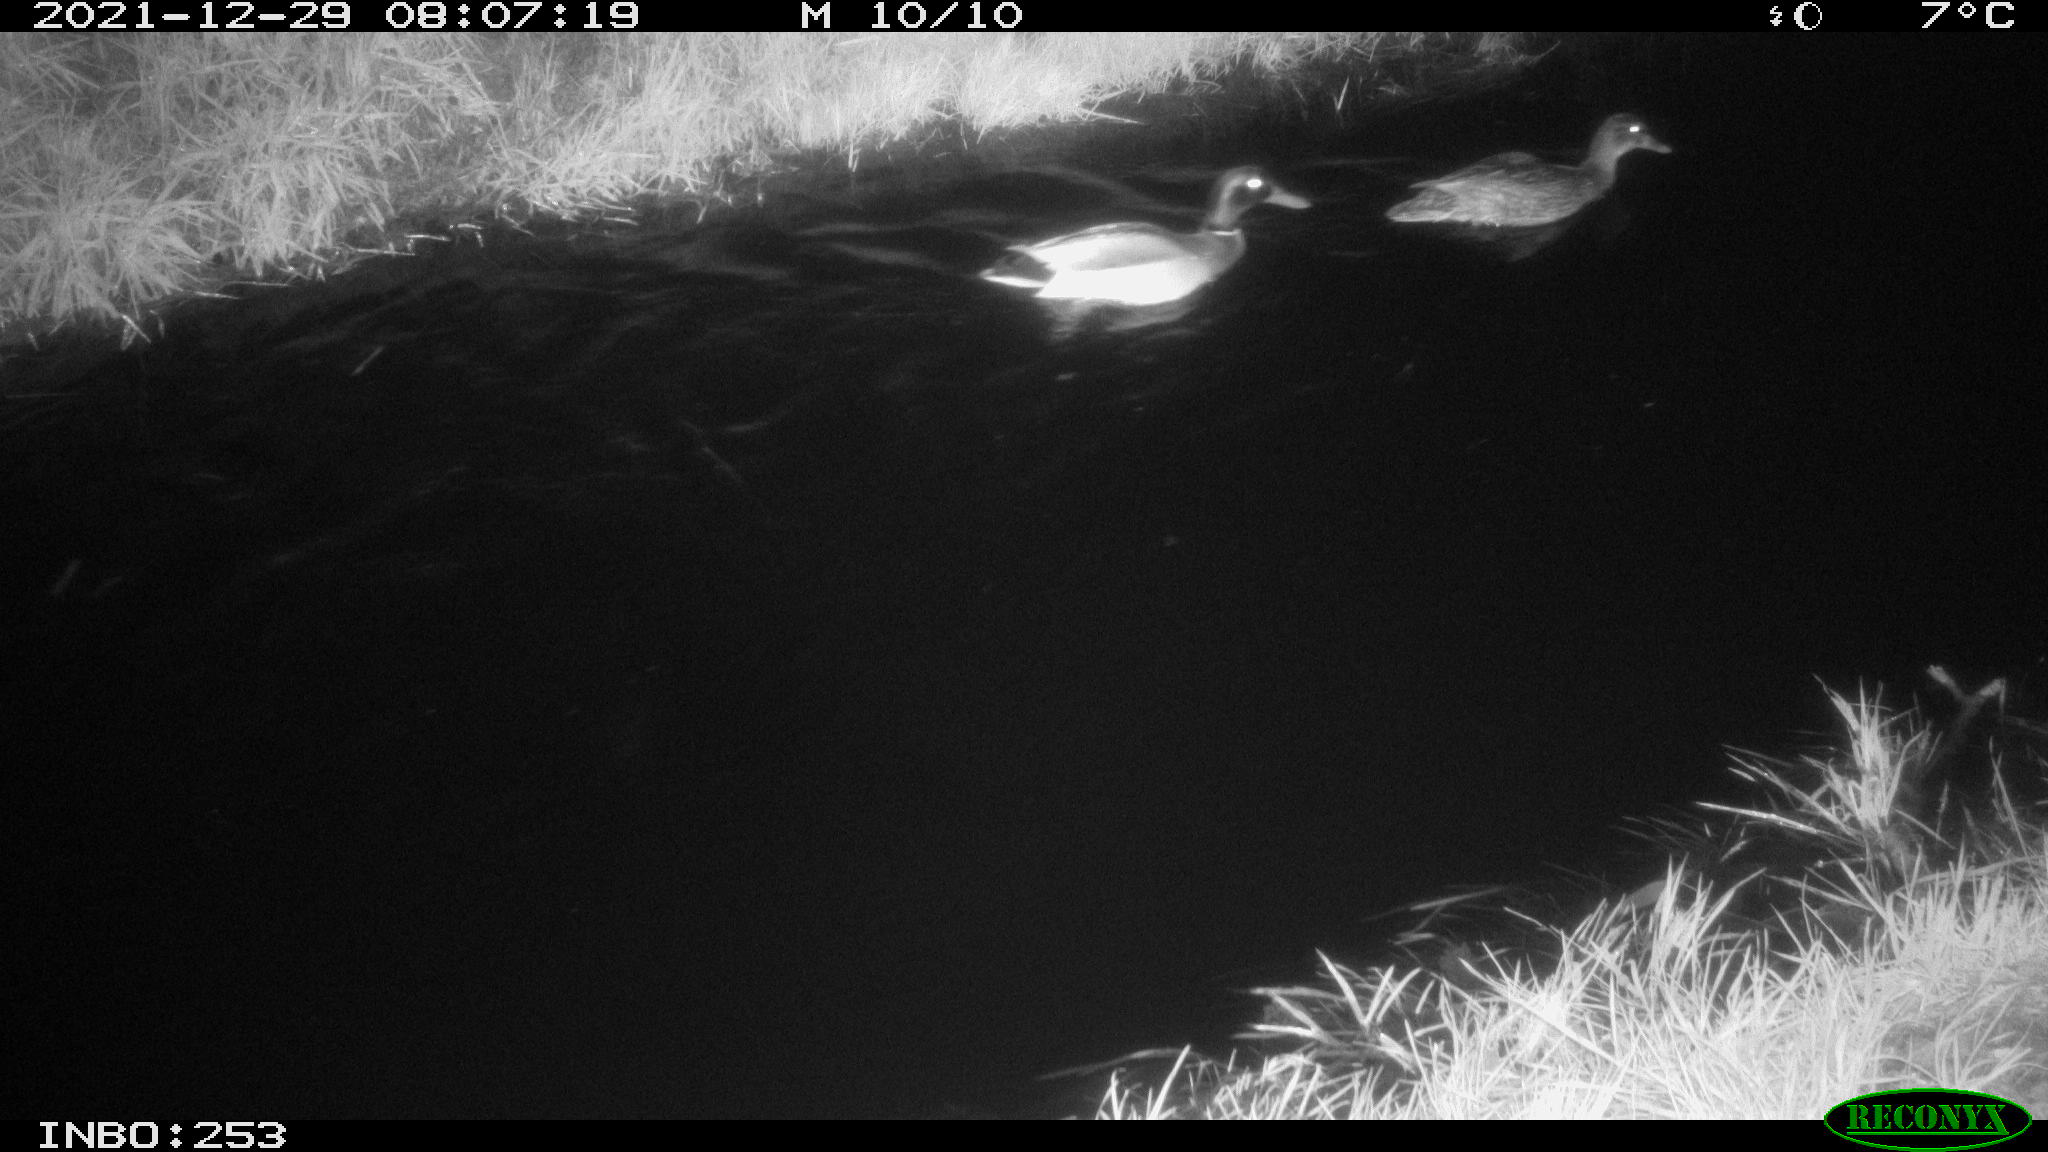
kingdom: Animalia
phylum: Chordata
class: Aves
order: Anseriformes
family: Anatidae
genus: Anas
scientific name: Anas
